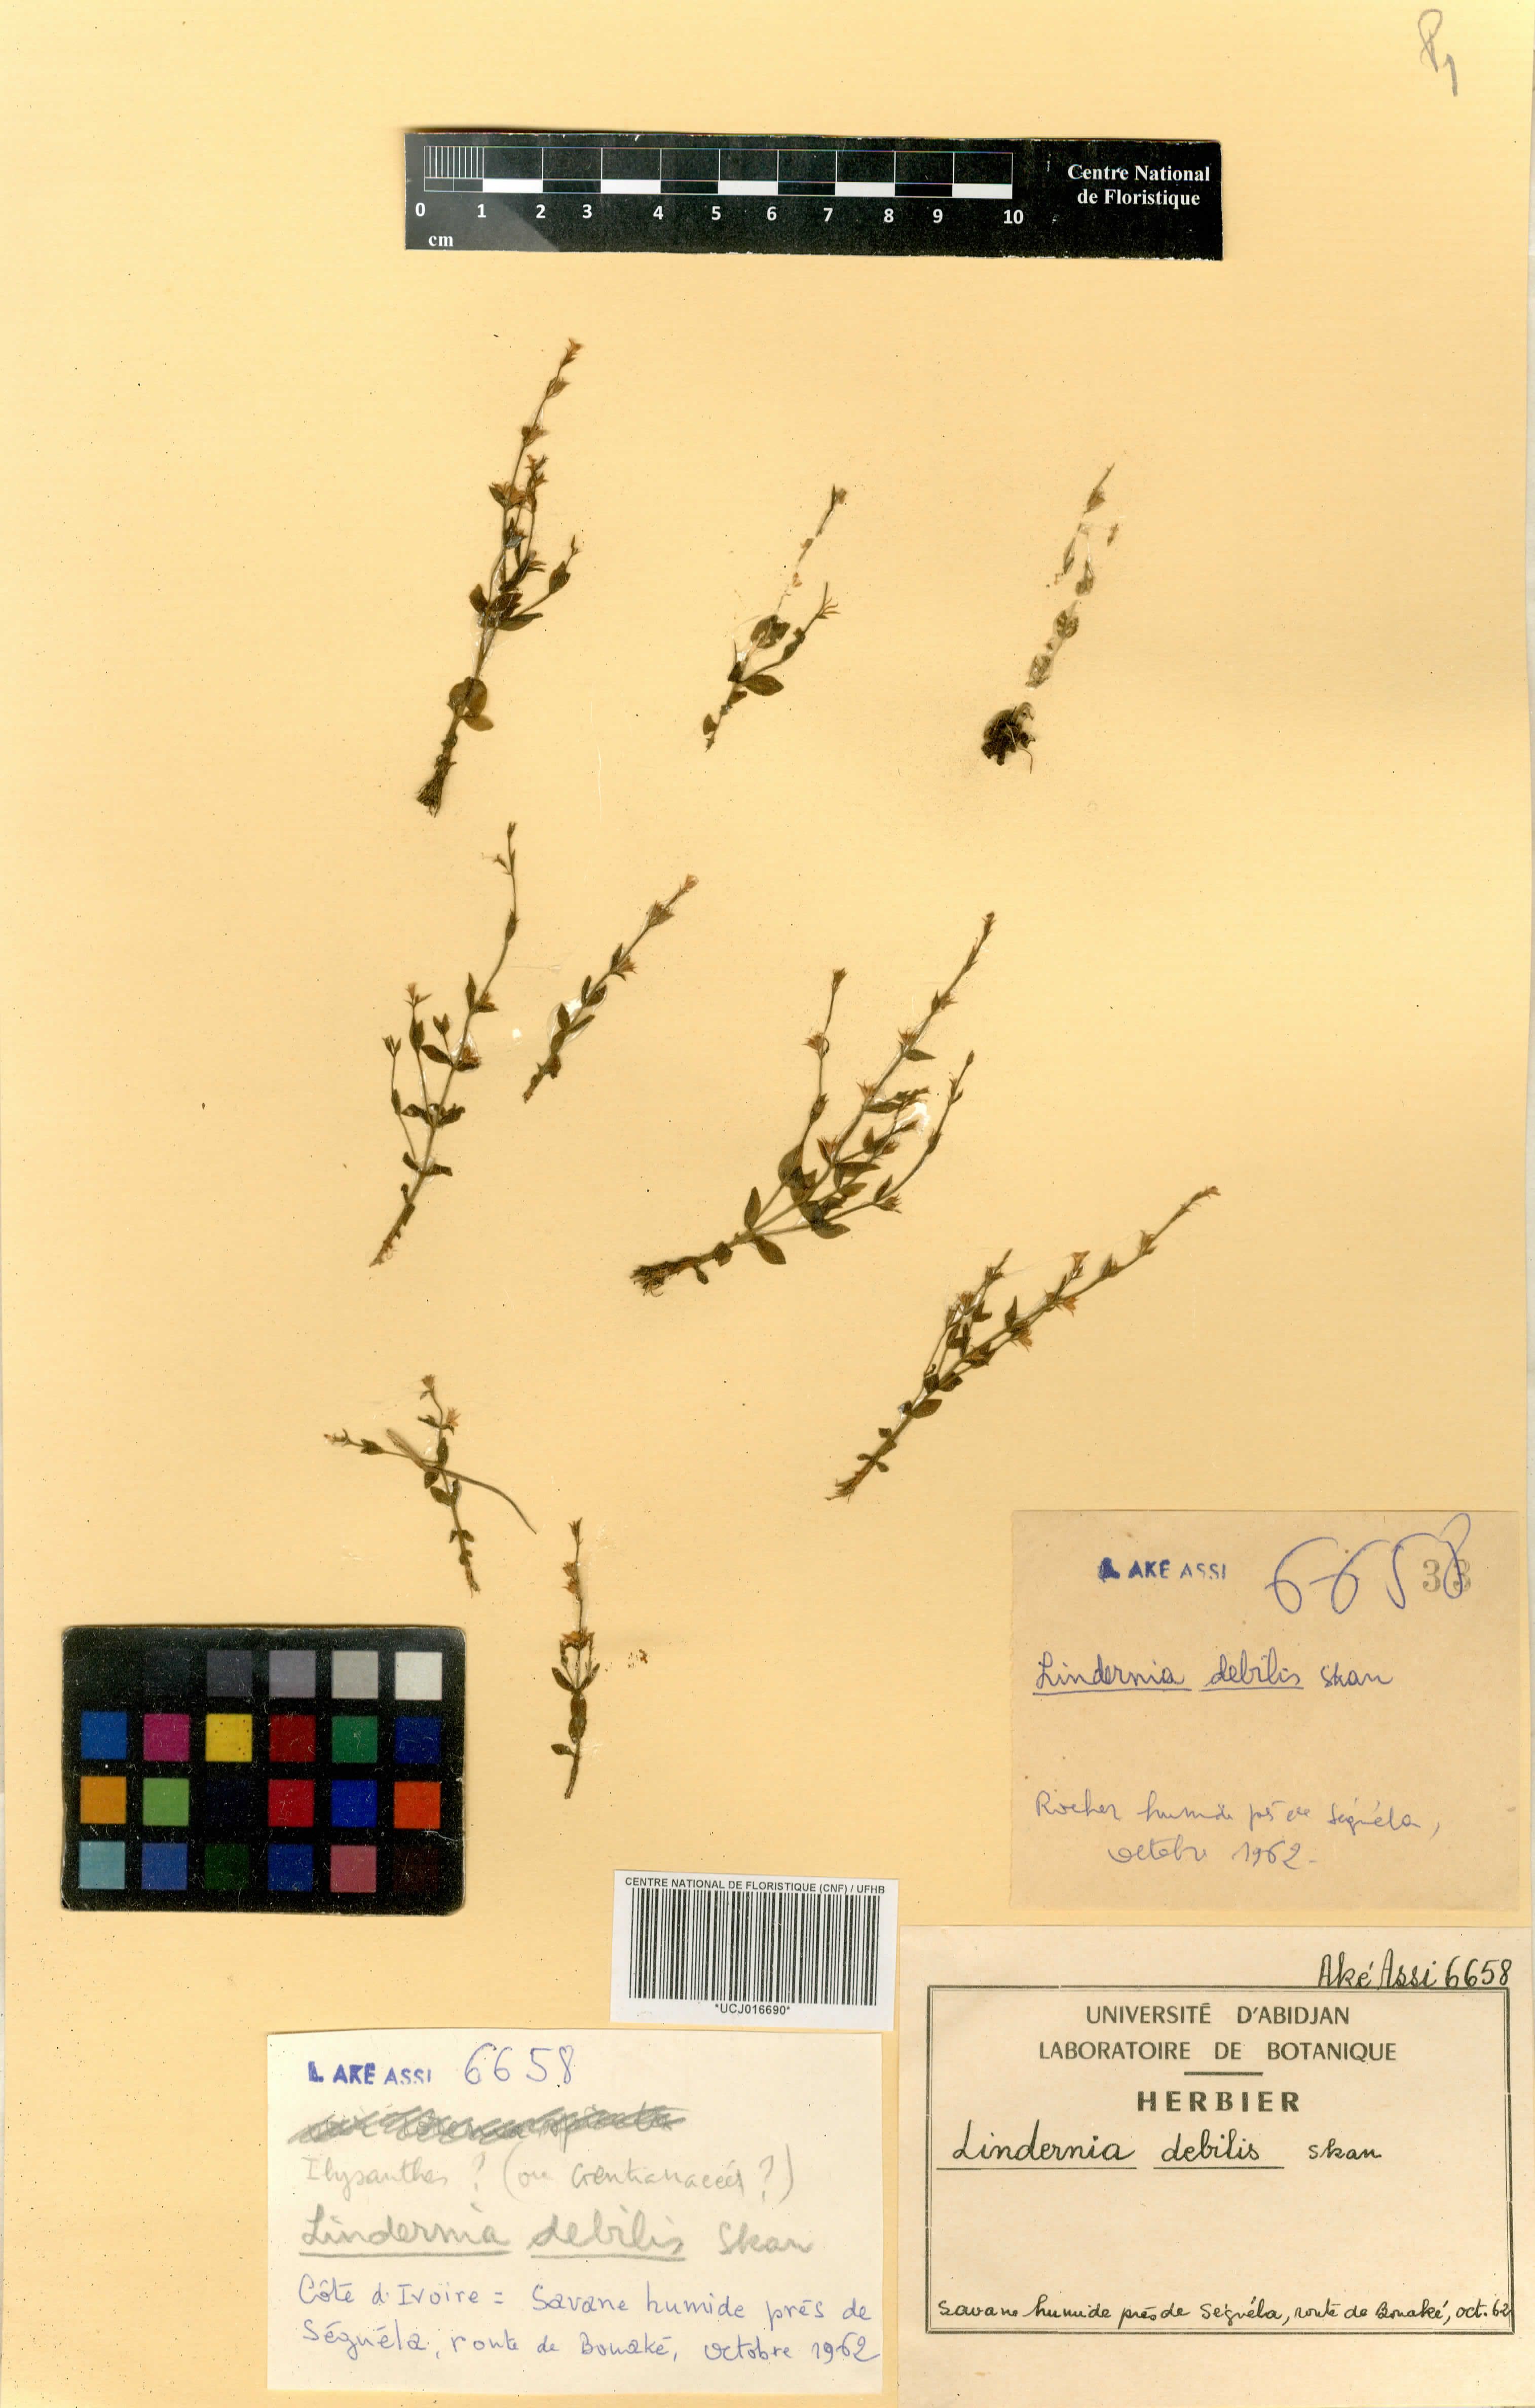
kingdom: Plantae
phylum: Tracheophyta
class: Magnoliopsida
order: Lamiales
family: Linderniaceae
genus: Crepidorhopalon
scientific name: Crepidorhopalon debilis
